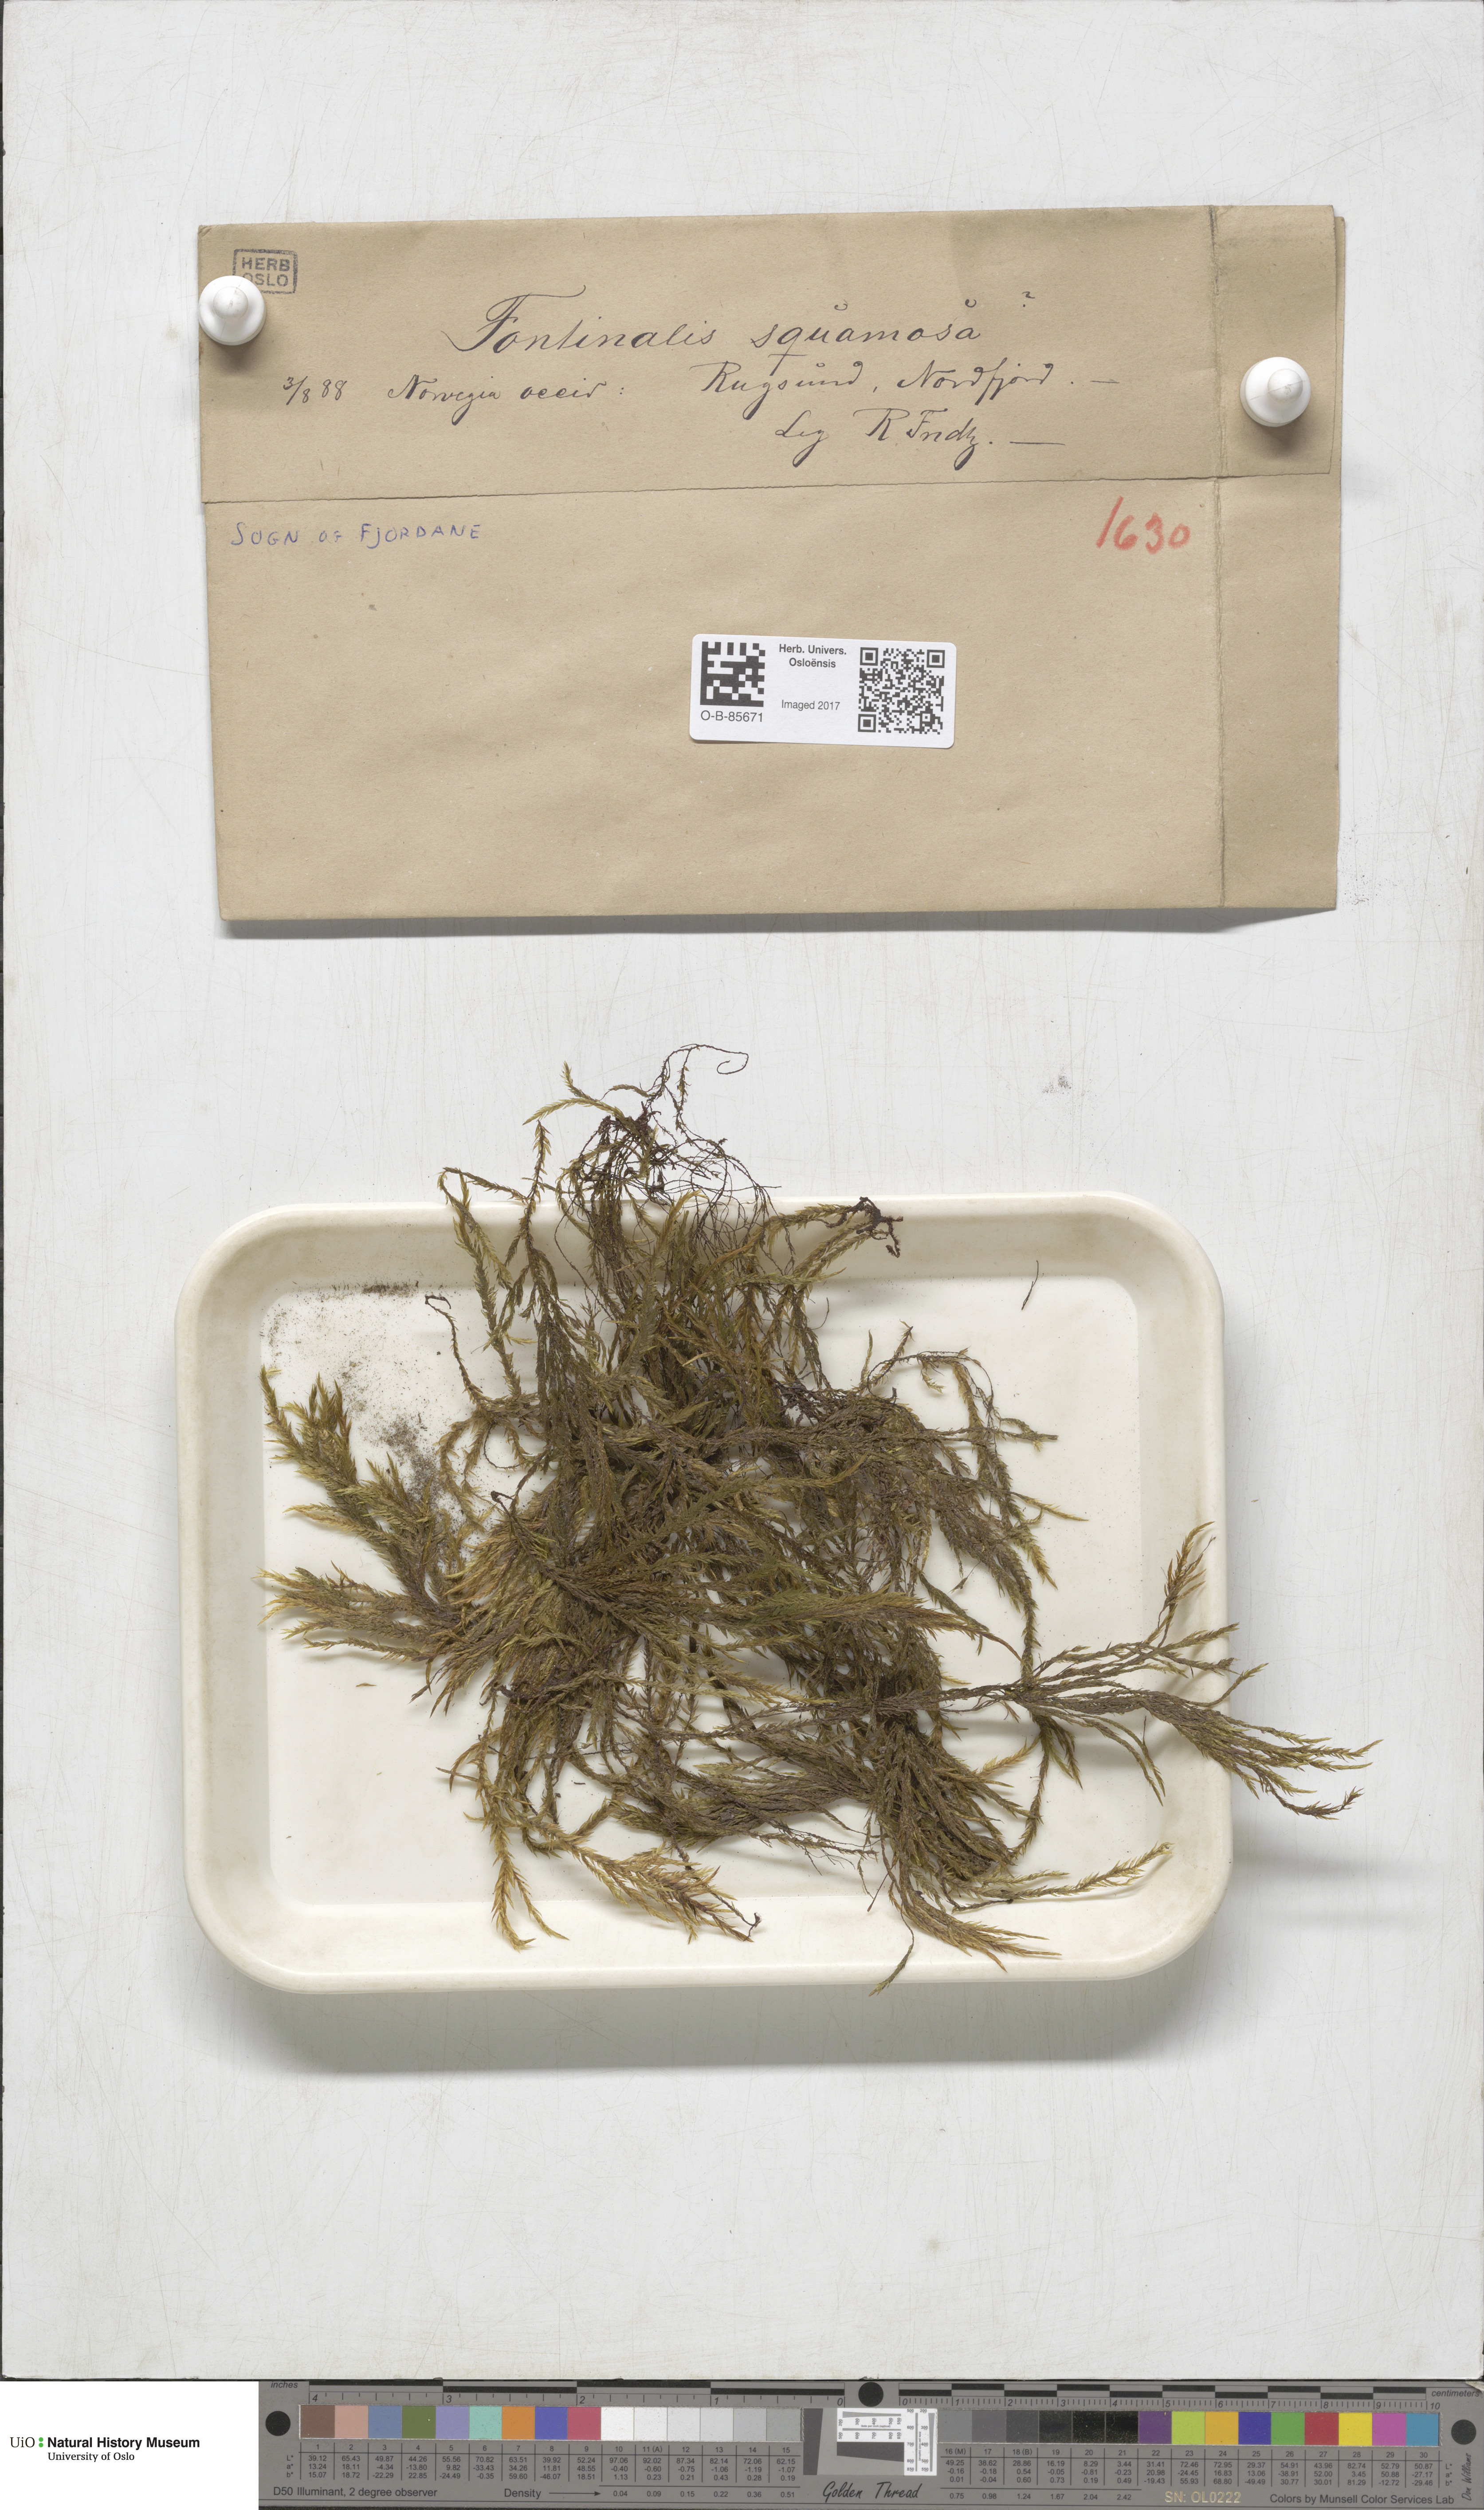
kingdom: Plantae
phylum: Bryophyta
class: Bryopsida
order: Hypnales
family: Fontinalaceae
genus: Fontinalis
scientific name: Fontinalis squamosa
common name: Alpine water-moss
